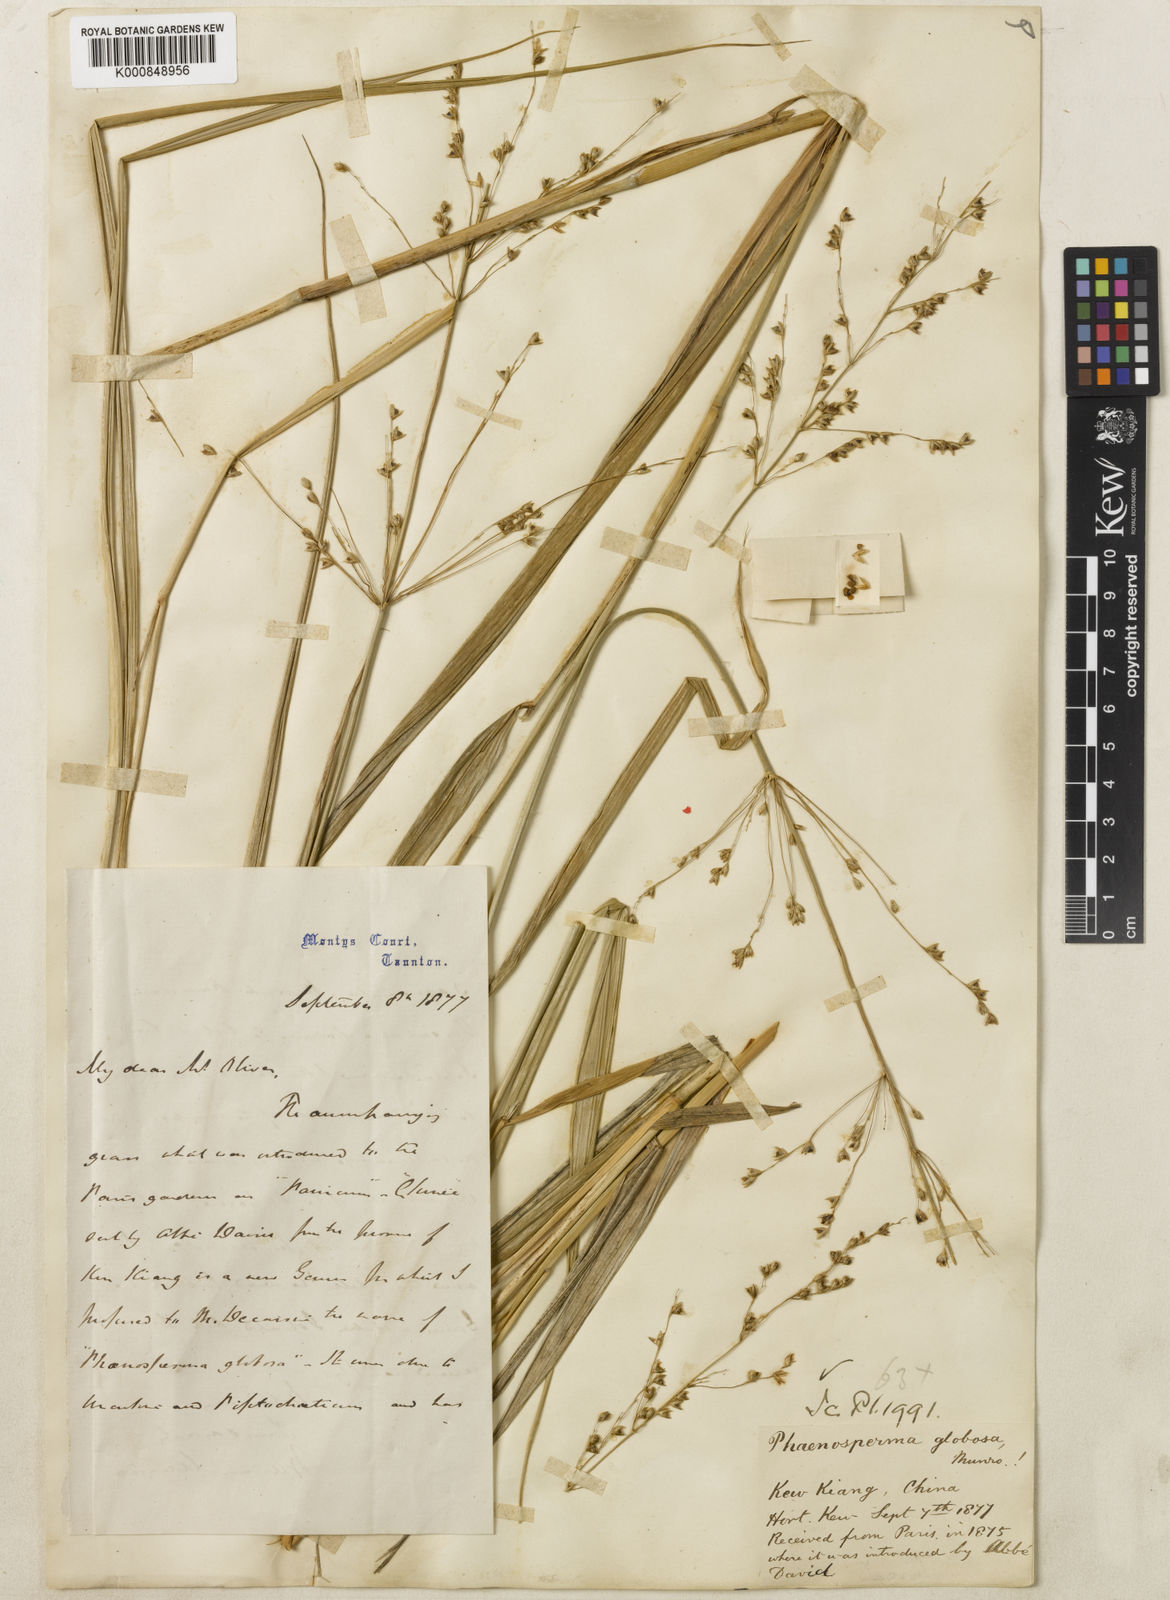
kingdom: Plantae
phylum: Tracheophyta
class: Liliopsida
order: Poales
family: Poaceae
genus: Phaenosperma
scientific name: Phaenosperma
